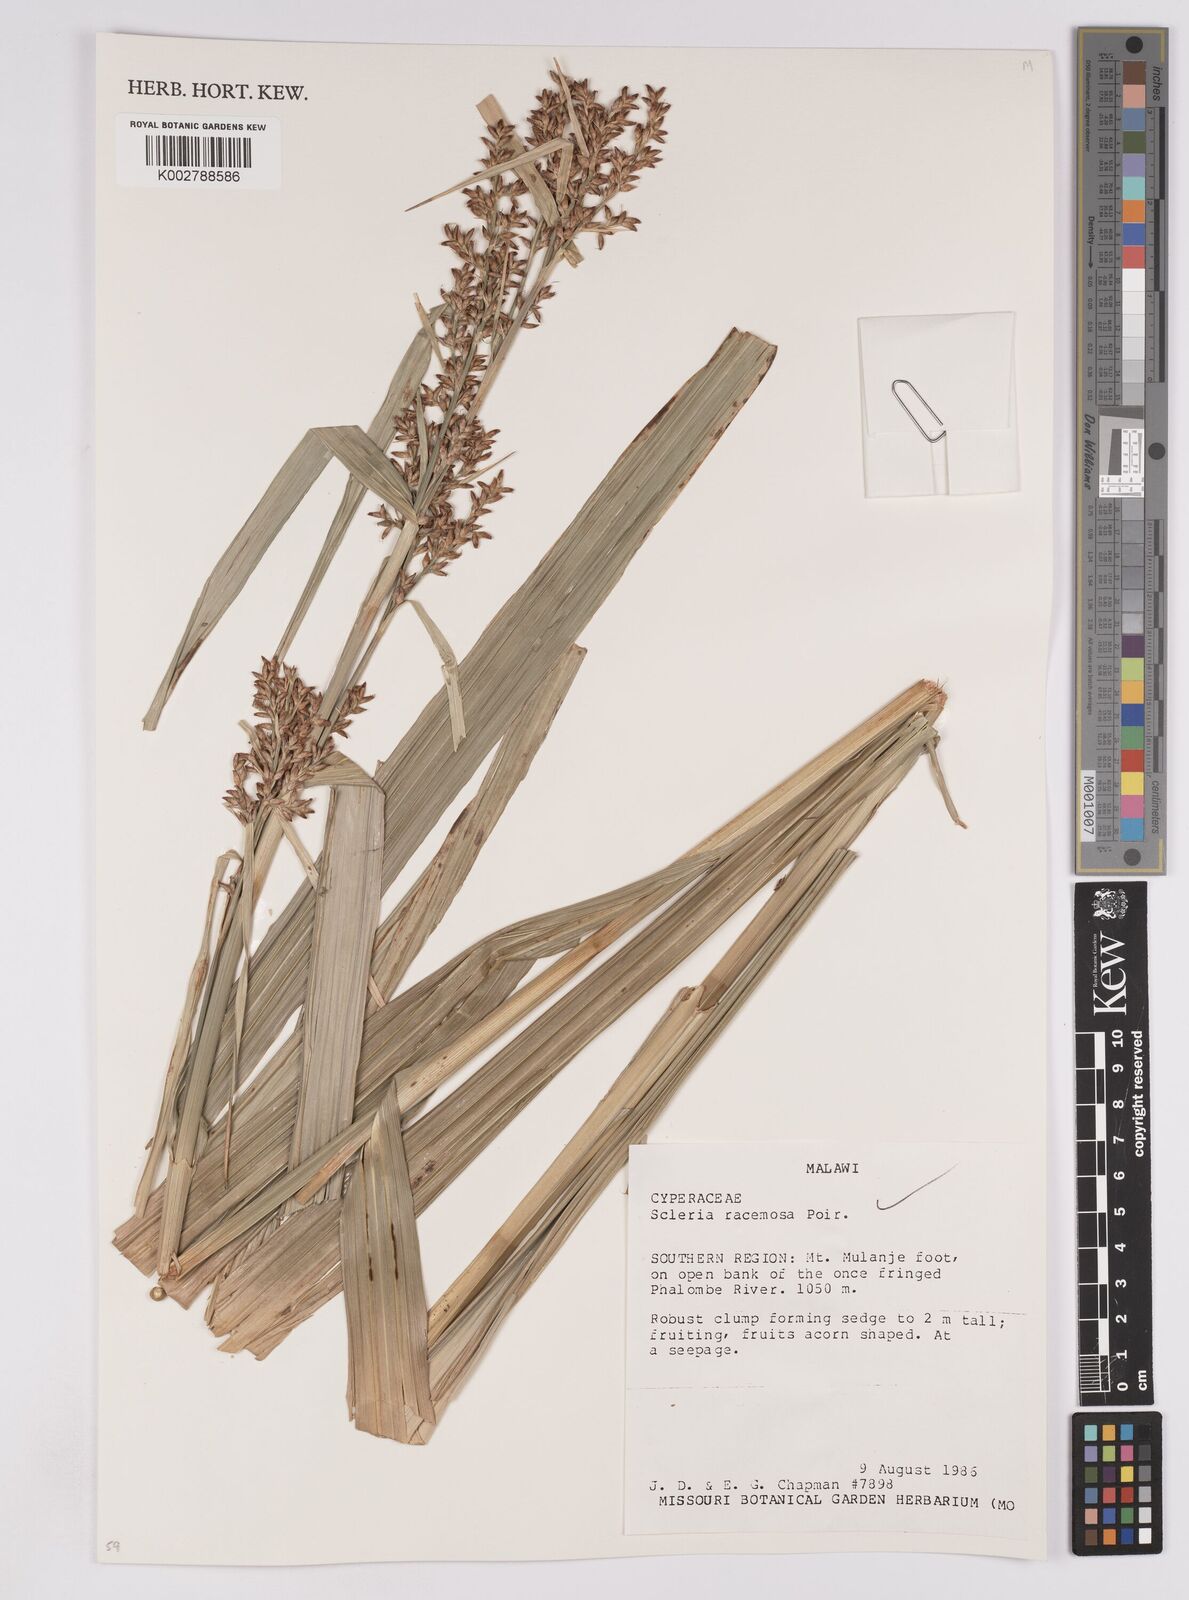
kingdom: Plantae
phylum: Tracheophyta
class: Liliopsida
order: Poales
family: Cyperaceae
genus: Scleria
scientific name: Scleria racemosa
